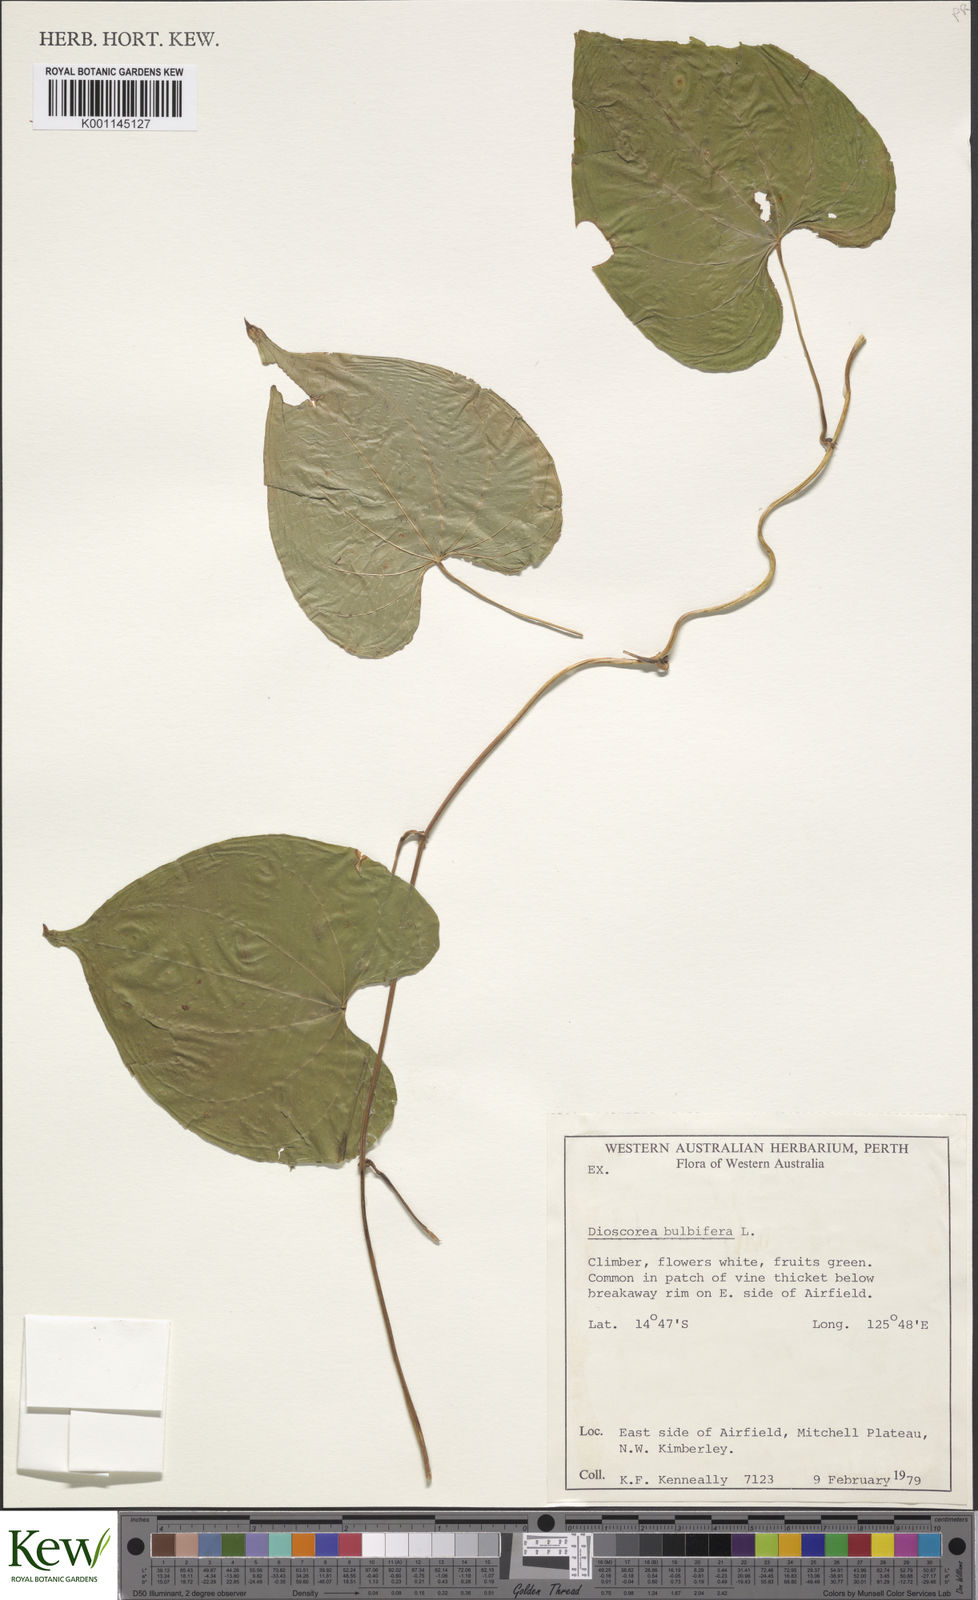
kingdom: Plantae
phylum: Tracheophyta
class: Liliopsida
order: Dioscoreales
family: Dioscoreaceae
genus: Dioscorea
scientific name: Dioscorea bulbifera
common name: Air yam
